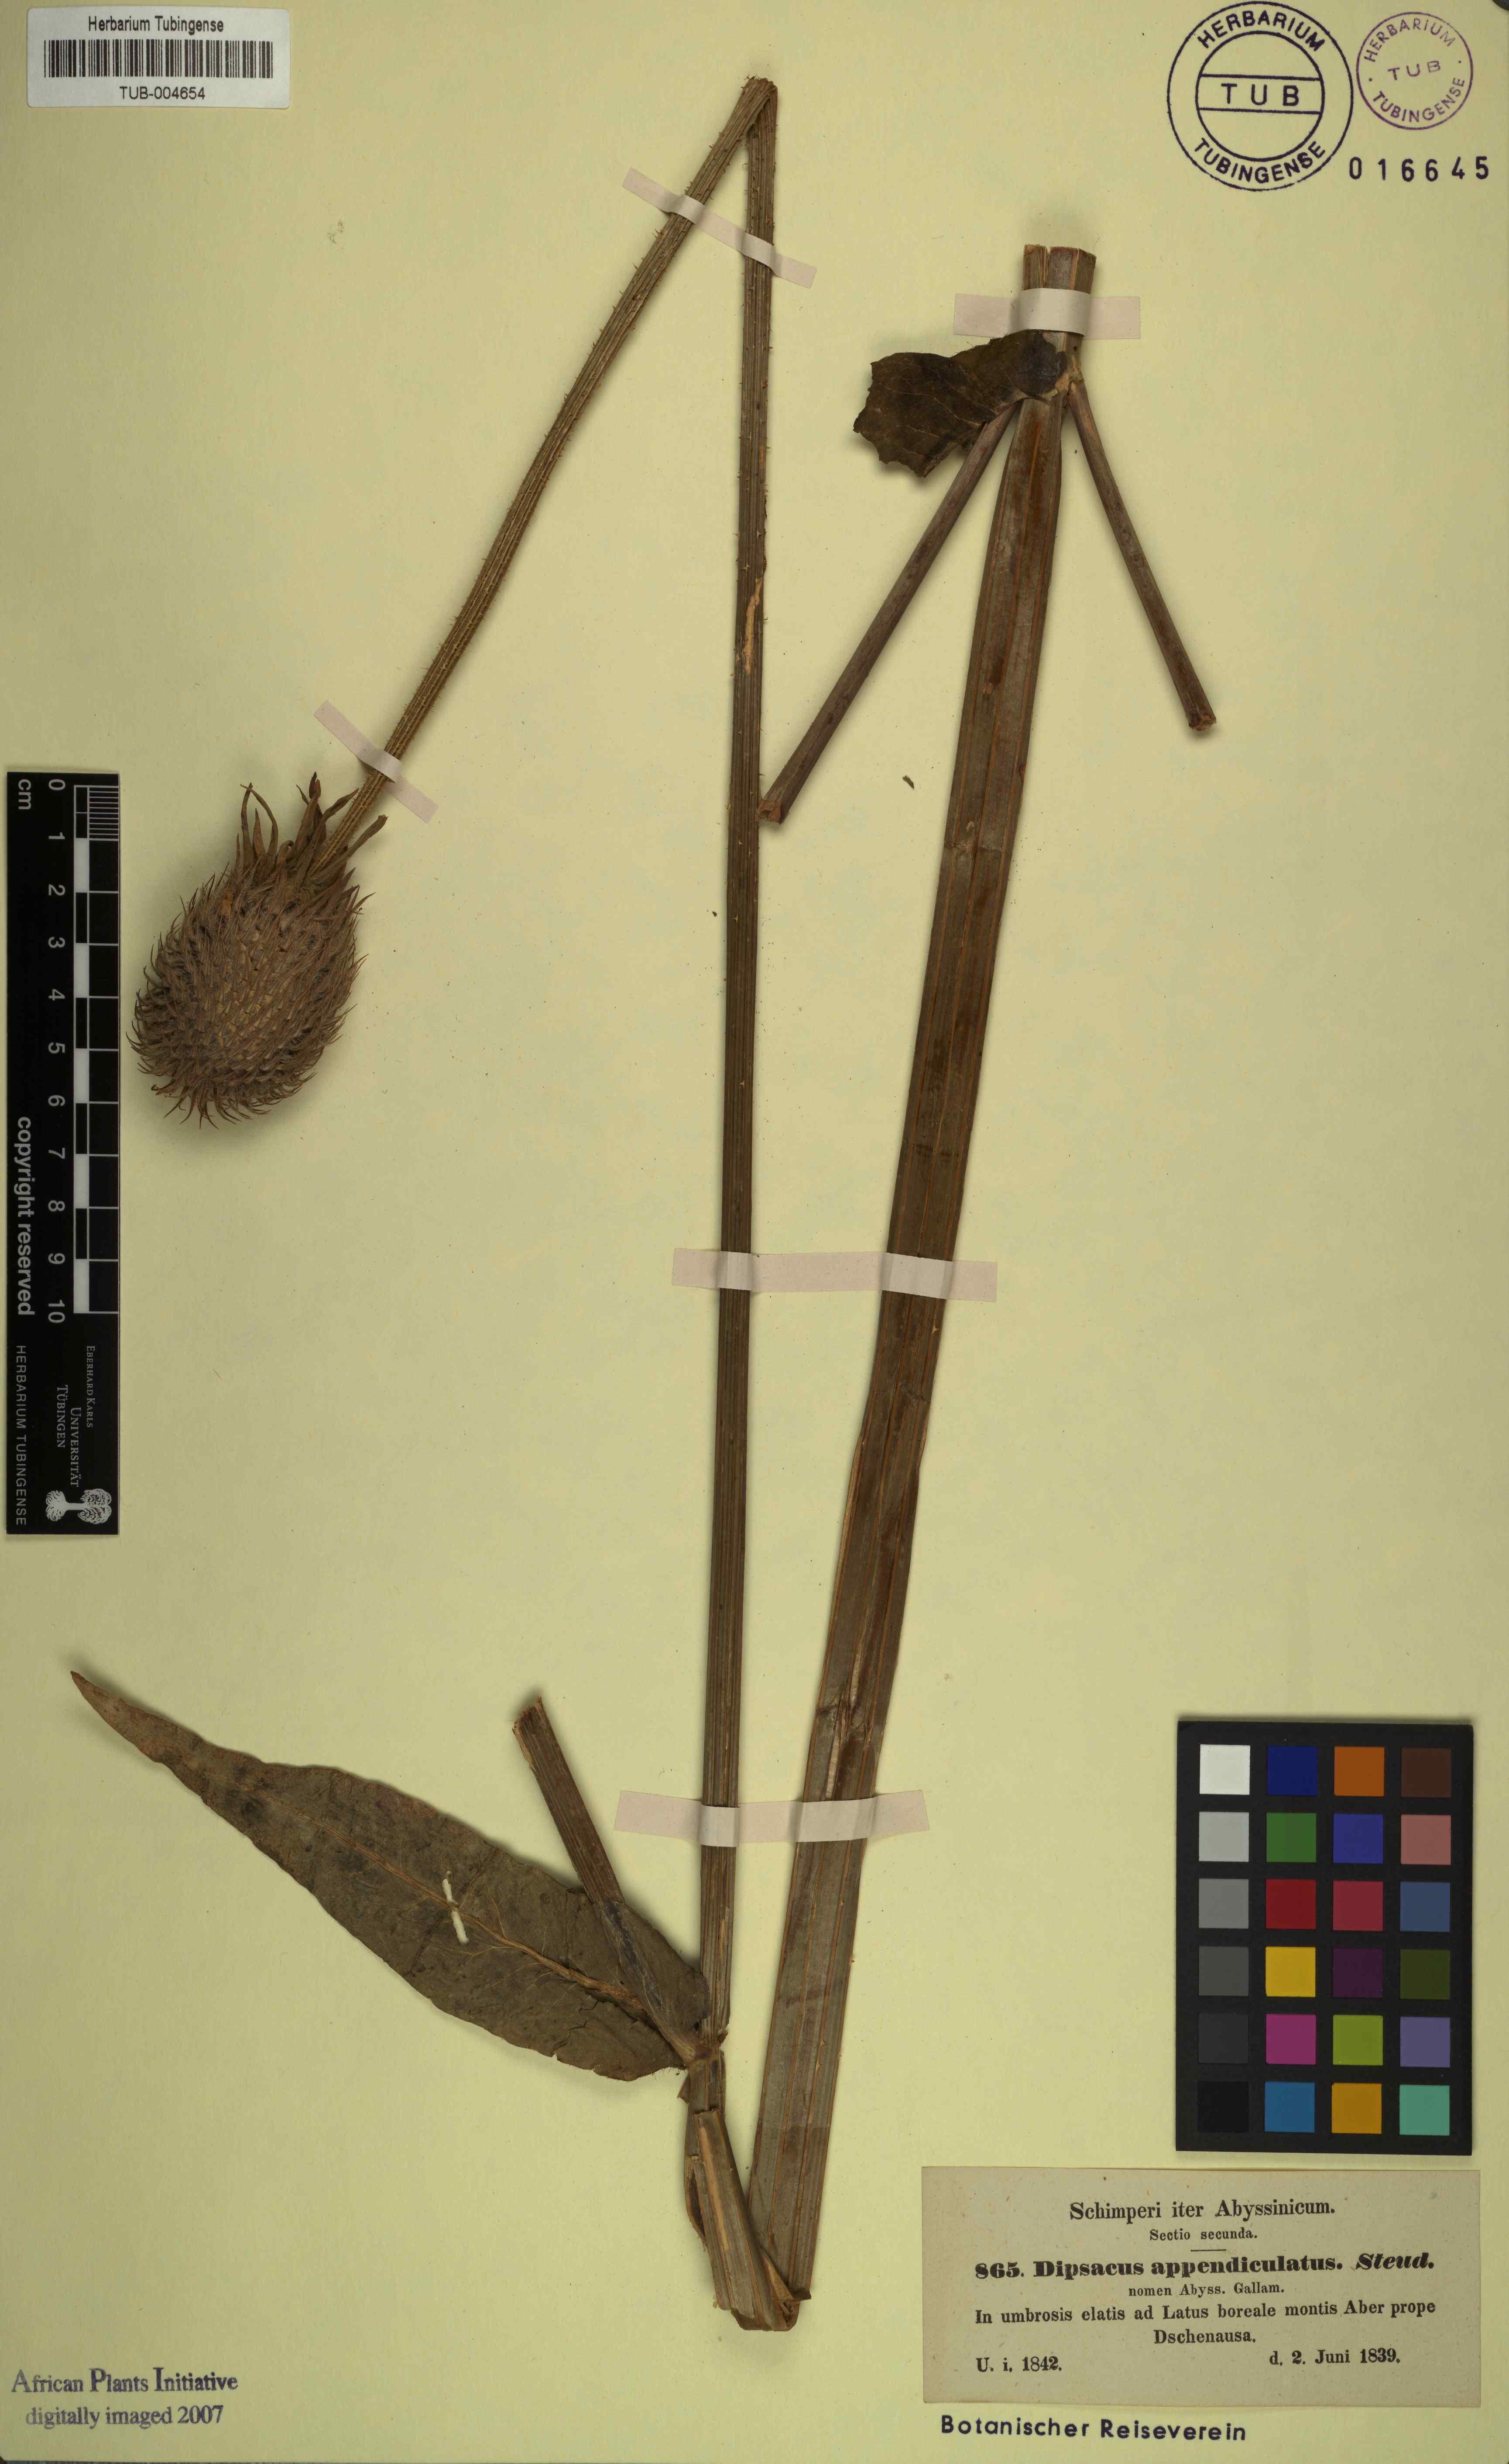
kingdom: Plantae
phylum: Tracheophyta
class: Magnoliopsida
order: Dipsacales
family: Caprifoliaceae
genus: Dipsacus
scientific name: Dipsacus pinnatifidus
